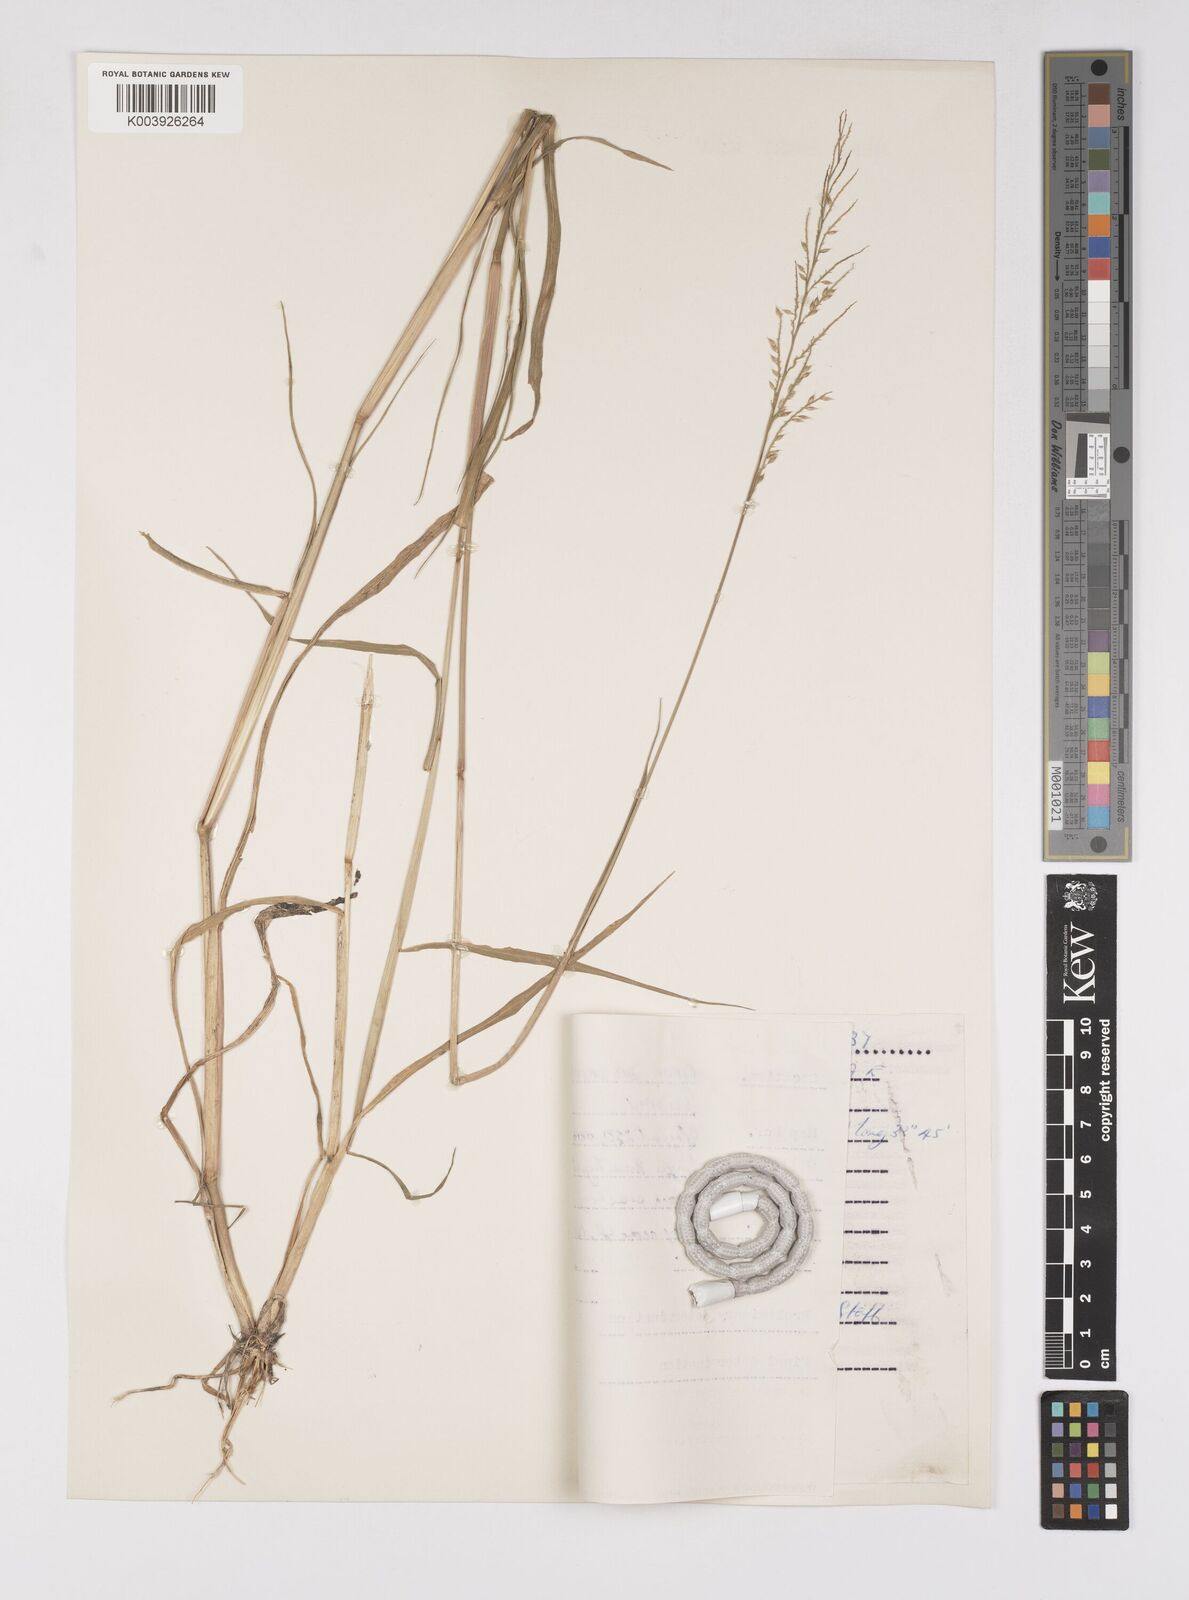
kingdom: Plantae
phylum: Tracheophyta
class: Liliopsida
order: Poales
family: Poaceae
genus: Eriochloa
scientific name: Eriochloa barbatus
